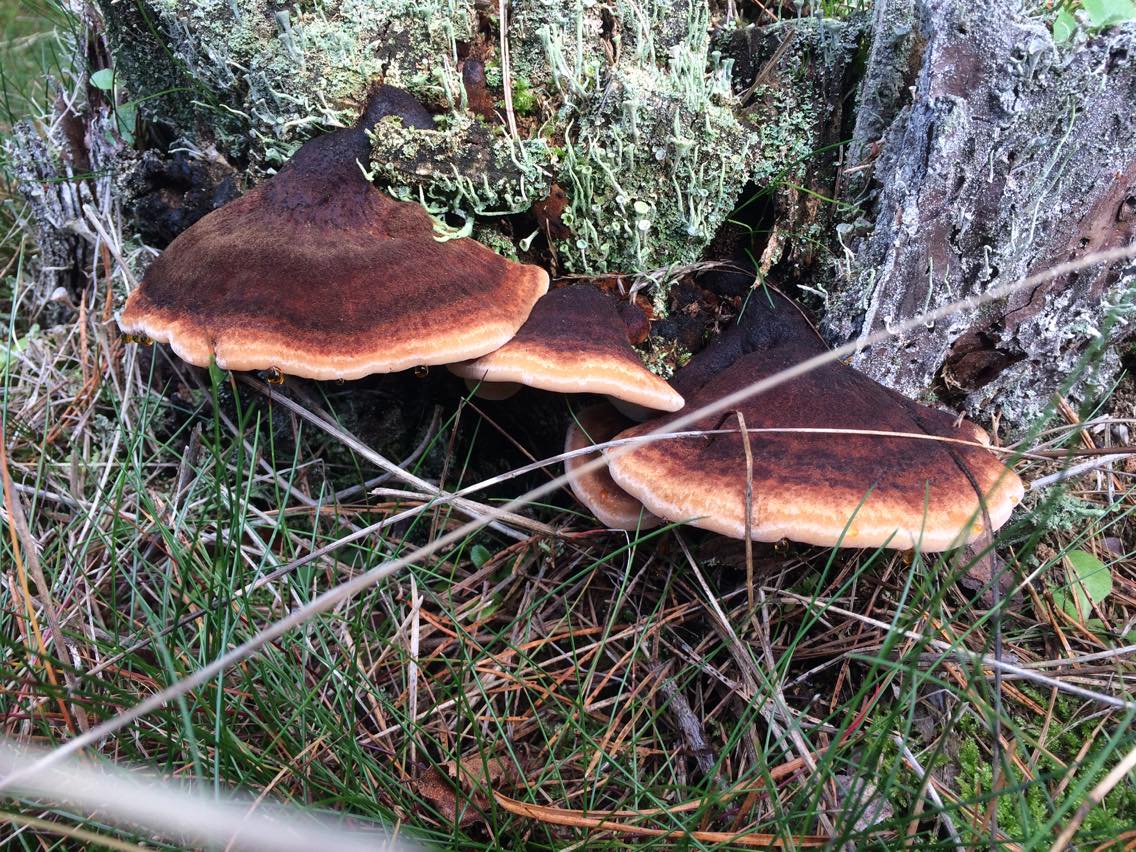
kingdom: Fungi
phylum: Basidiomycota
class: Agaricomycetes
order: Polyporales
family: Ischnodermataceae
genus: Ischnoderma
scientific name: Ischnoderma benzoinum
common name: gran-tjæreporesvamp
